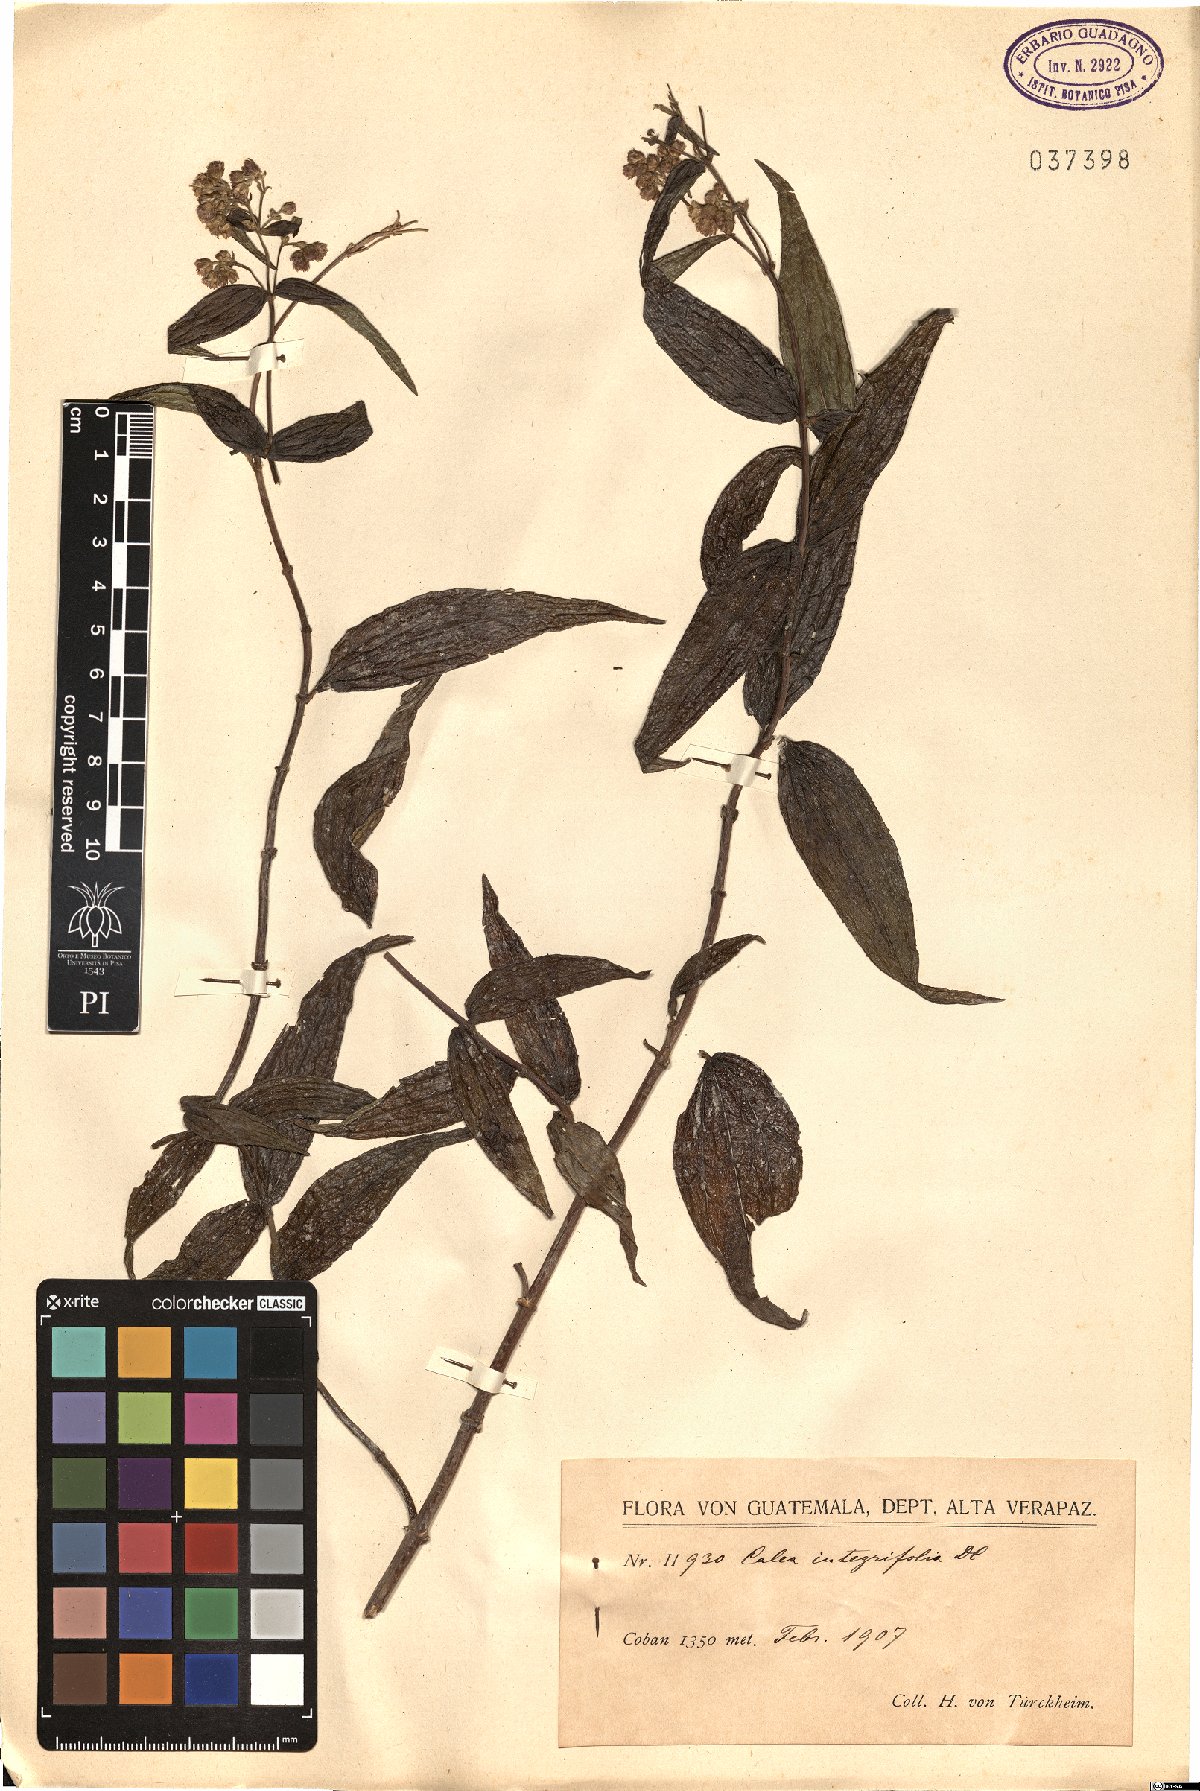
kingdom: Plantae
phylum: Tracheophyta
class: Magnoliopsida
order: Asterales
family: Asteraceae
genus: Alloispermum
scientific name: Alloispermum integrifolium
